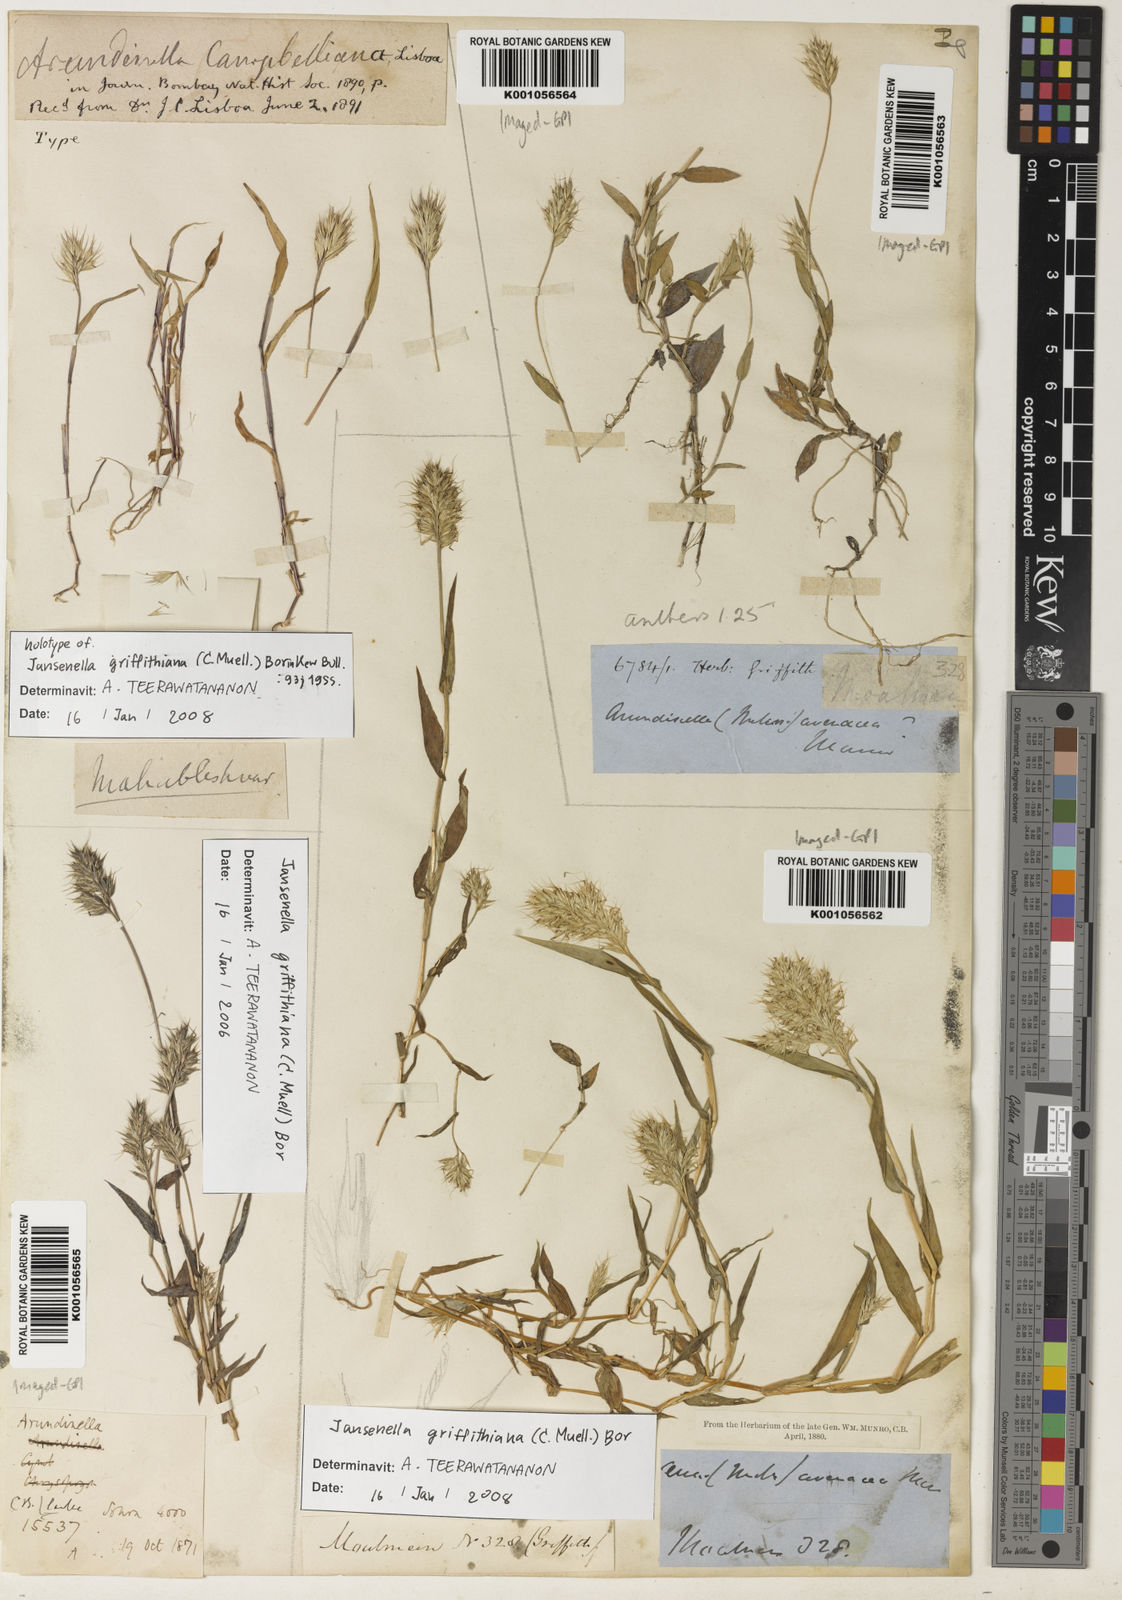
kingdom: Plantae
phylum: Tracheophyta
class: Liliopsida
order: Poales
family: Poaceae
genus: Jansenella
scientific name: Jansenella griffithiana
